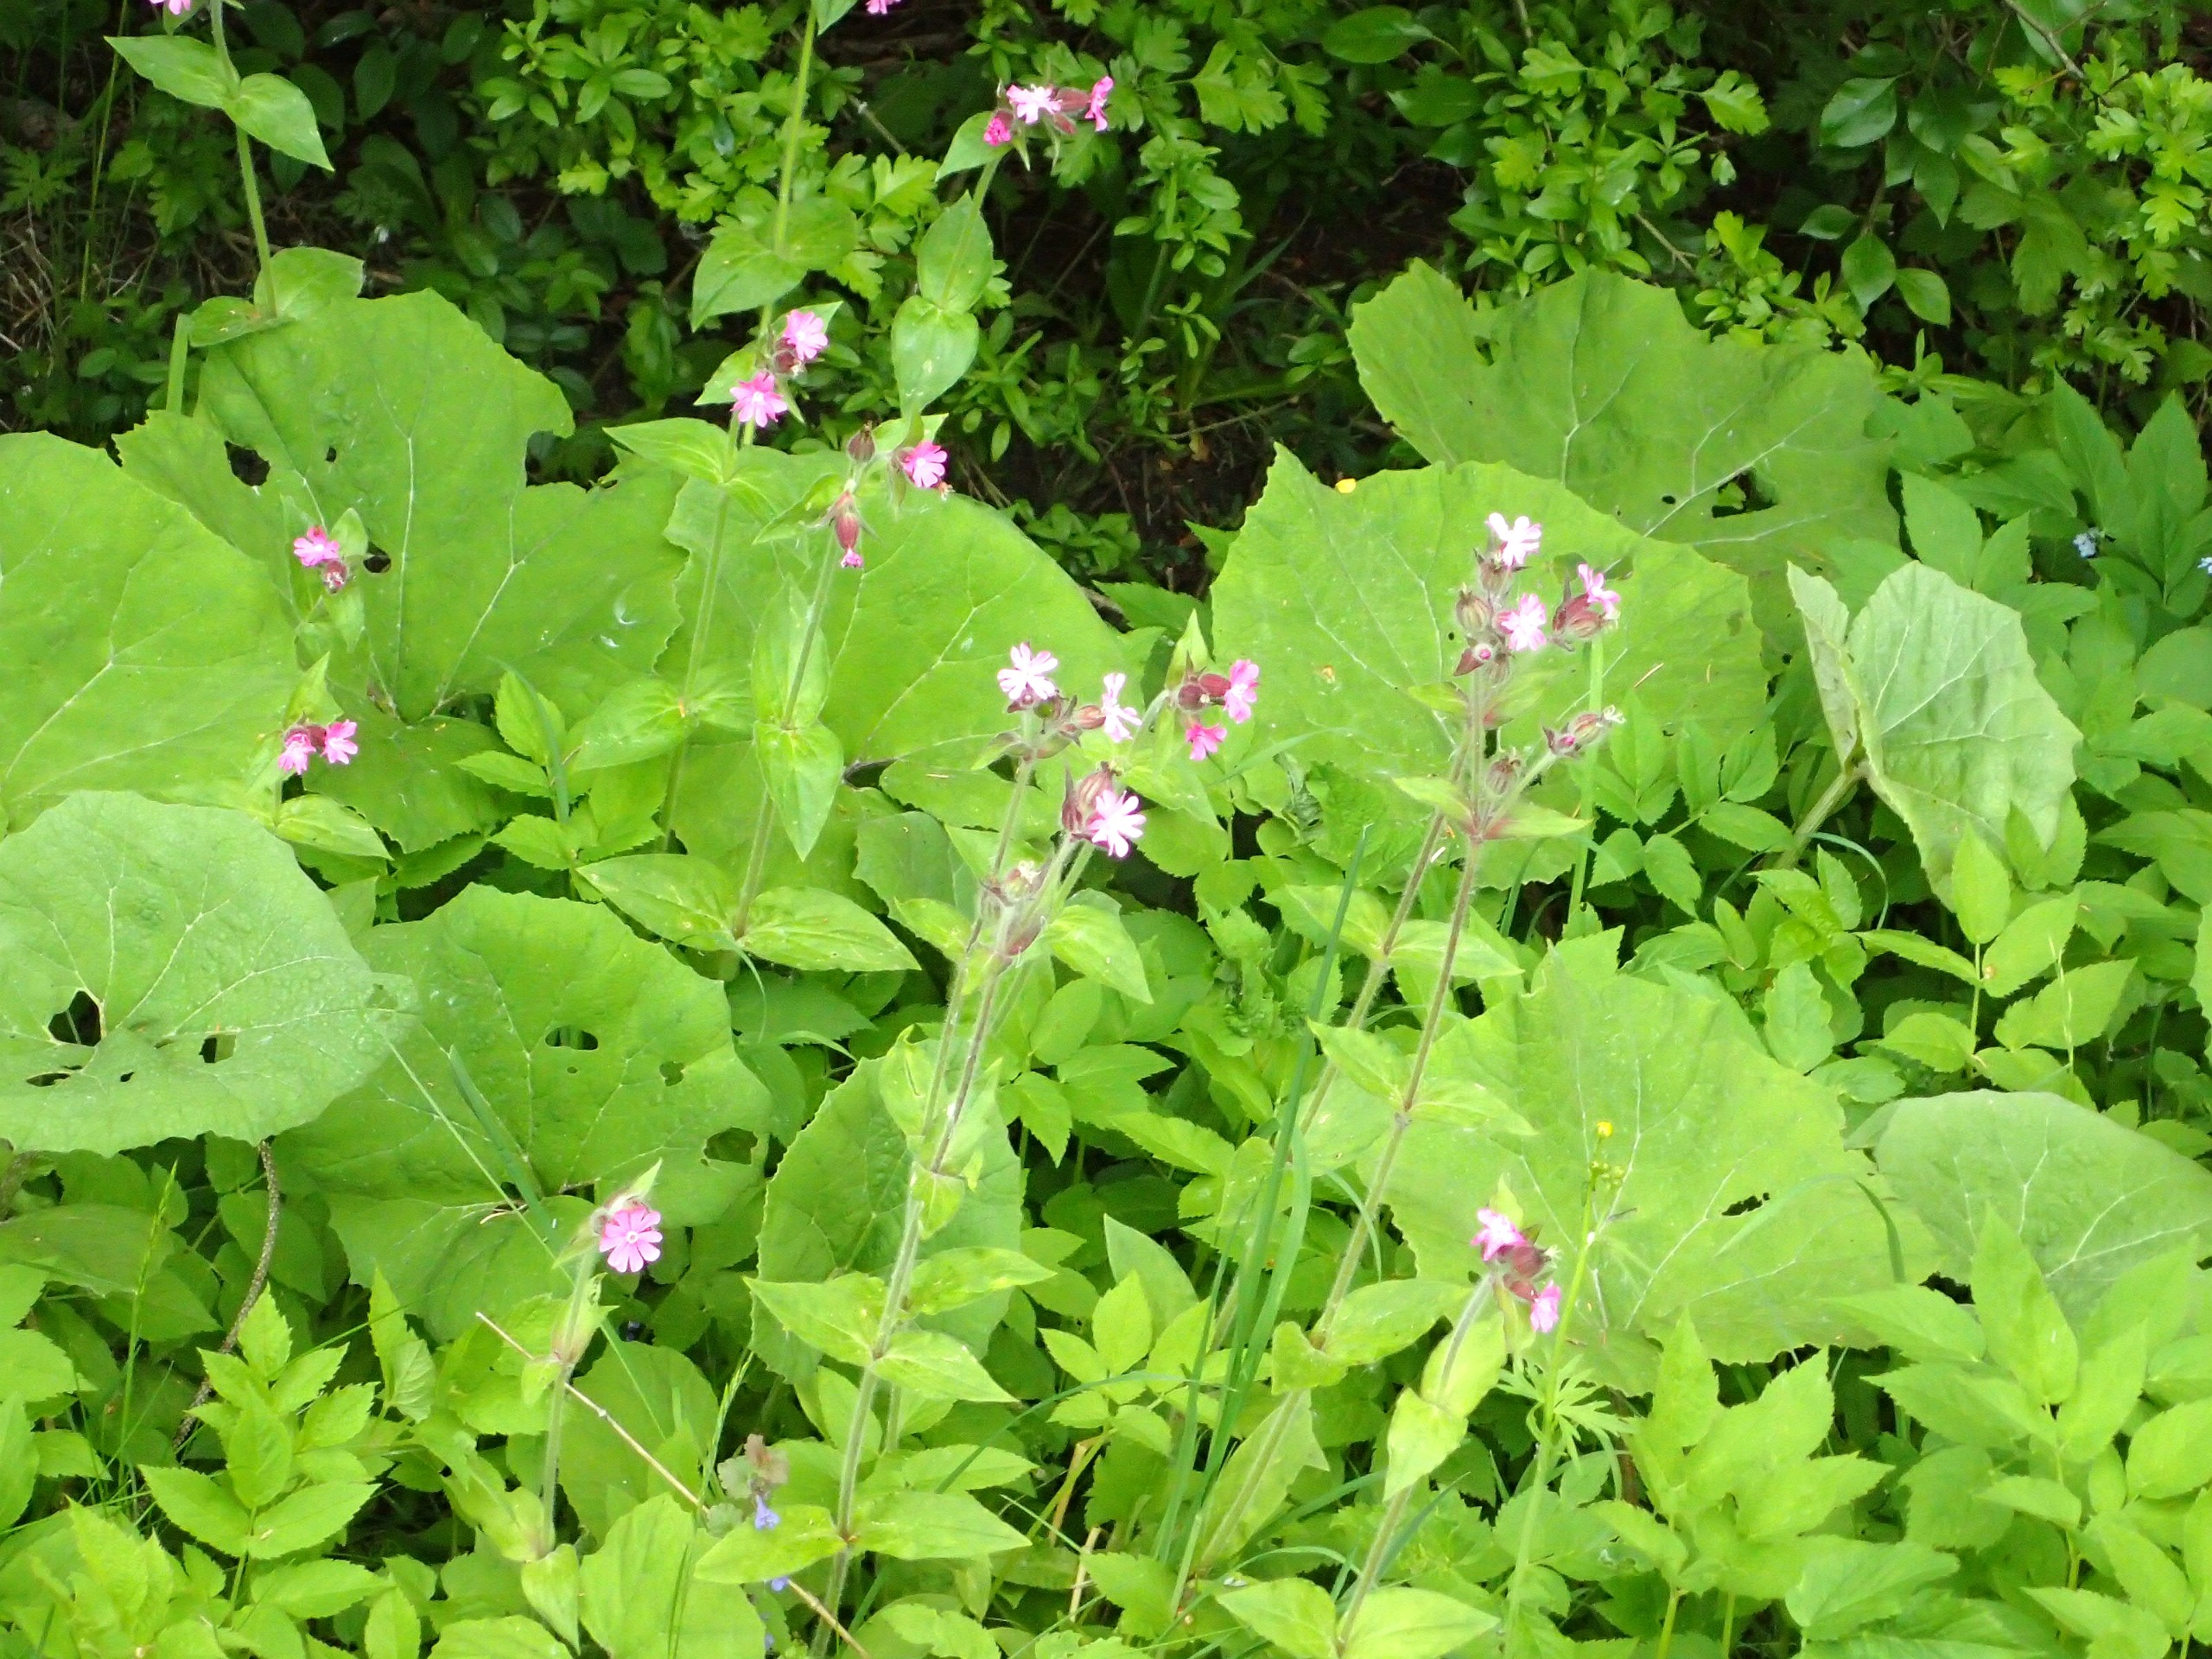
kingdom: Plantae
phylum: Tracheophyta
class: Magnoliopsida
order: Caryophyllales
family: Caryophyllaceae
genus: Silene
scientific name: Silene dioica
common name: Dagpragtstjerne
